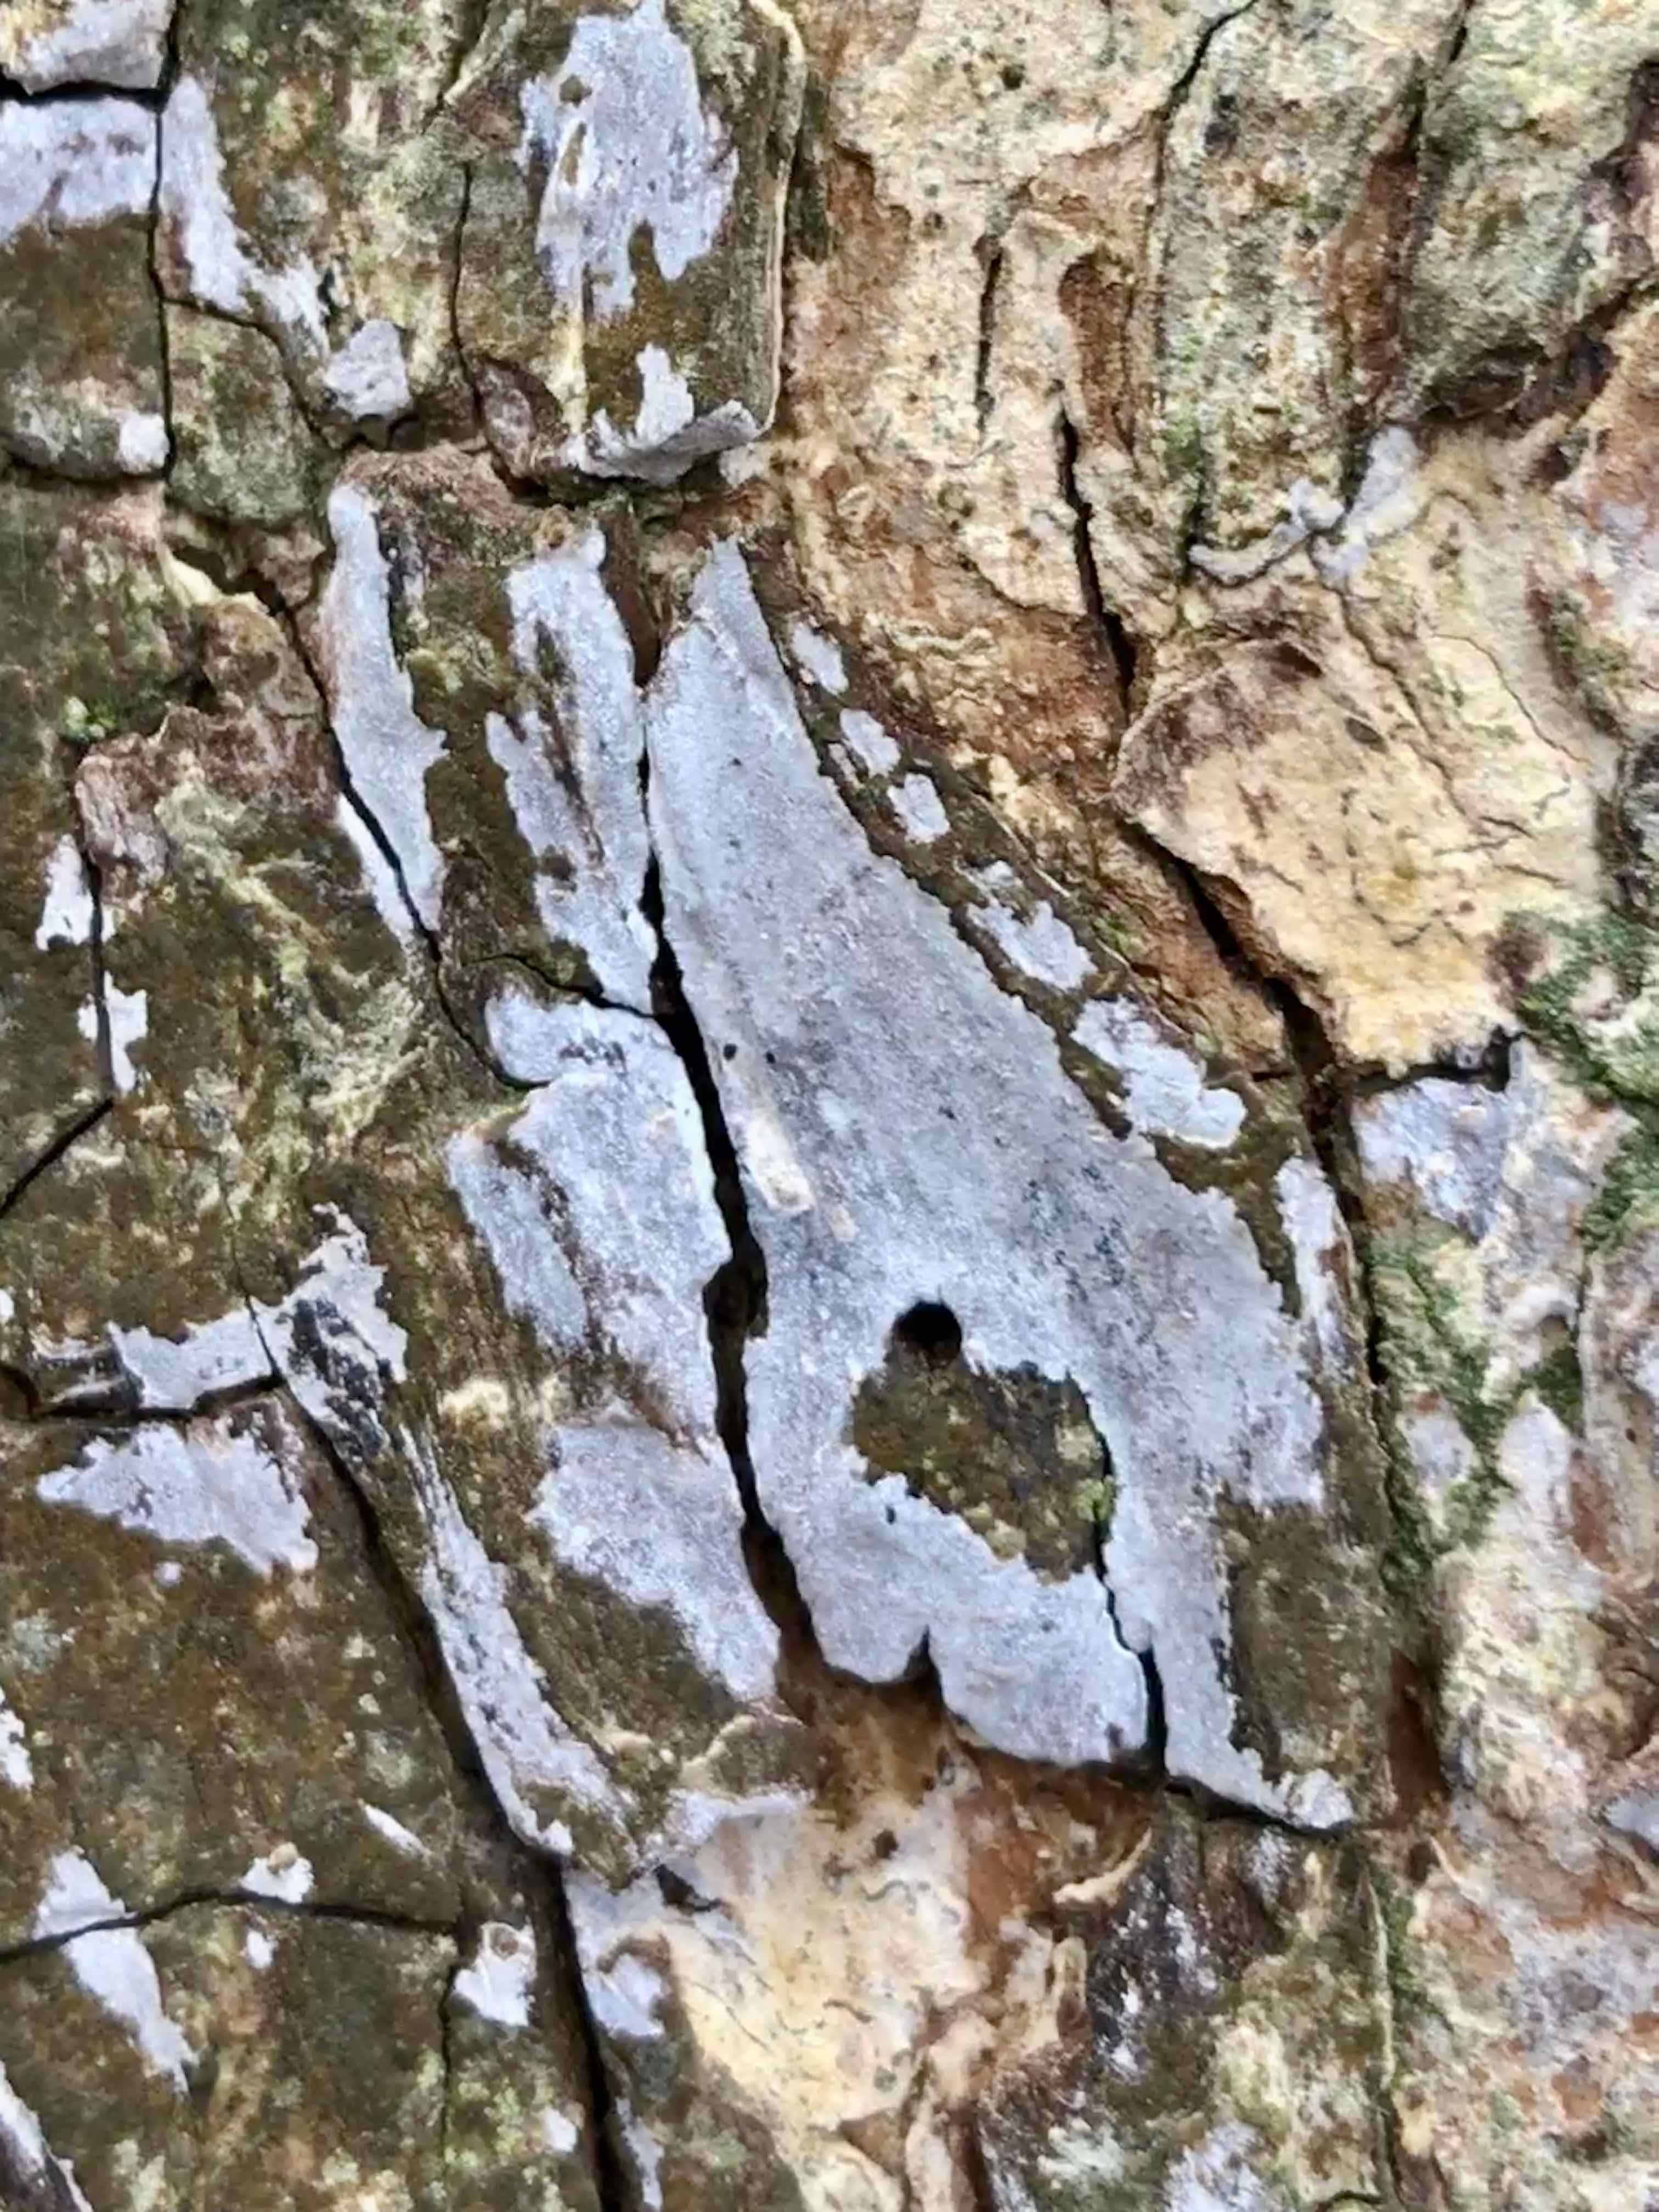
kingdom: Fungi
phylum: Basidiomycota
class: Agaricomycetes
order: Agaricales
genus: Dendrothele
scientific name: Dendrothele acerina
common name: navr-kalkplet
